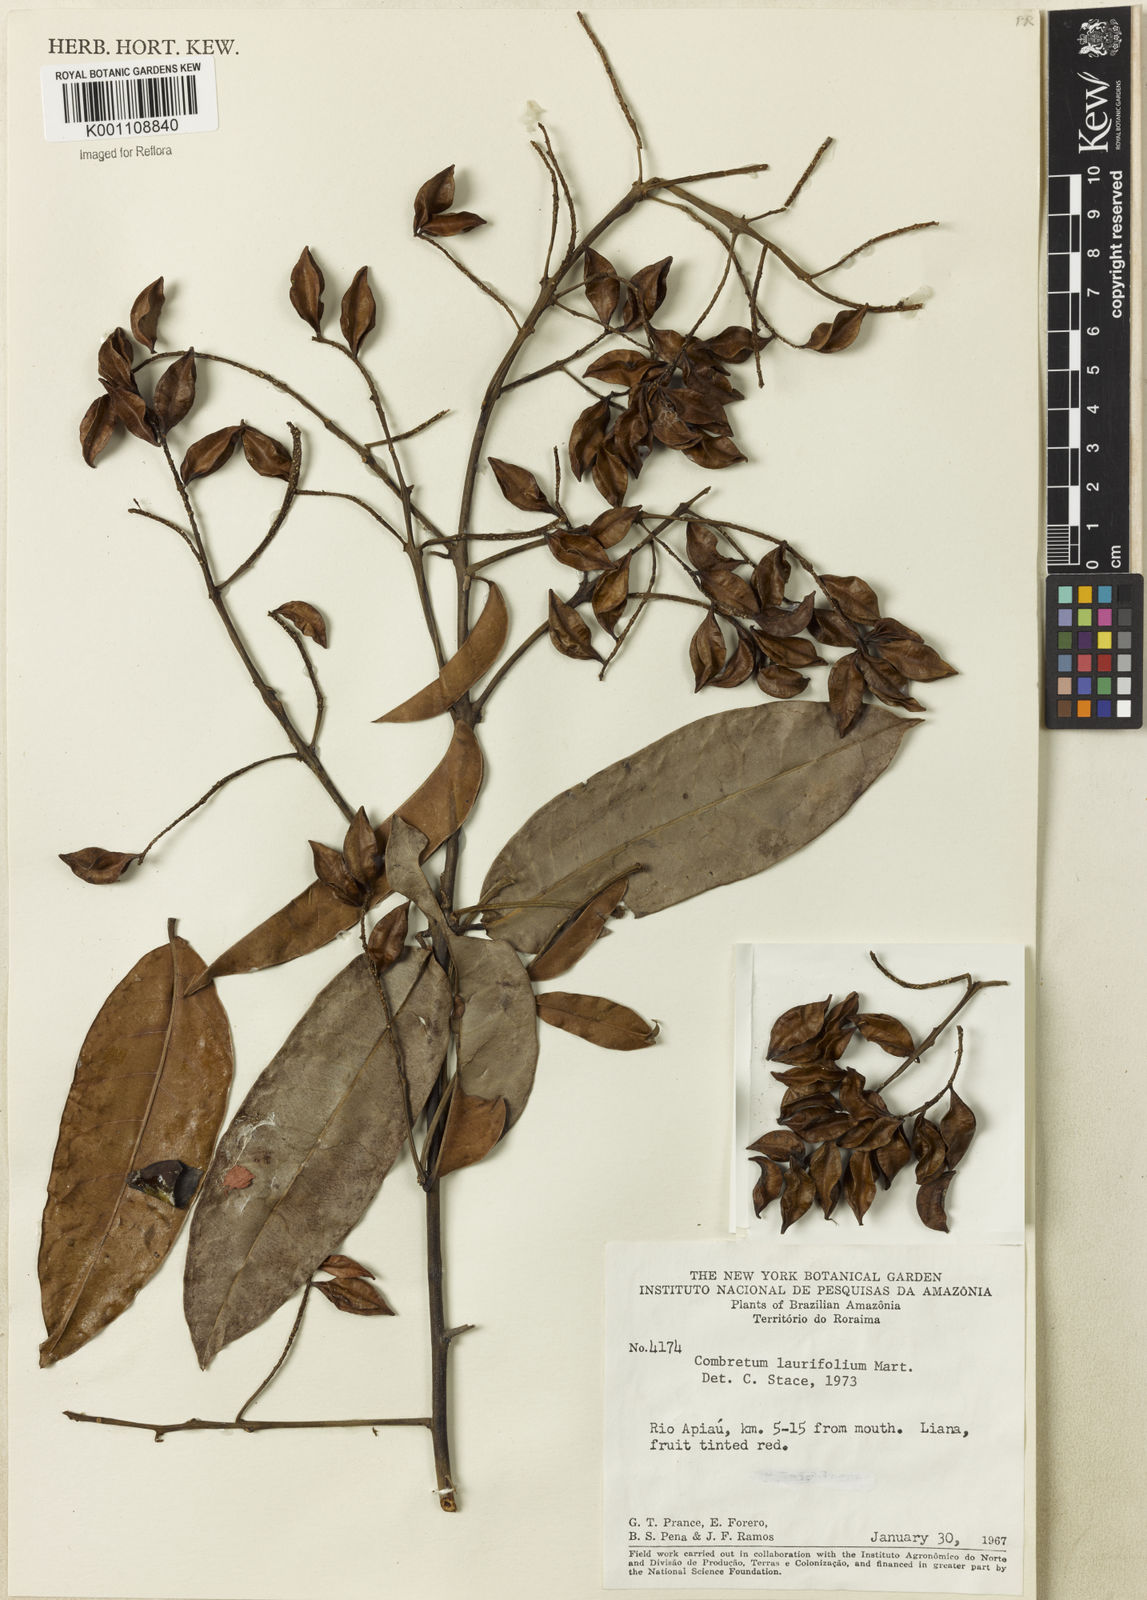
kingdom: Plantae
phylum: Tracheophyta
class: Magnoliopsida
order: Myrtales
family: Combretaceae
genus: Combretum
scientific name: Combretum
